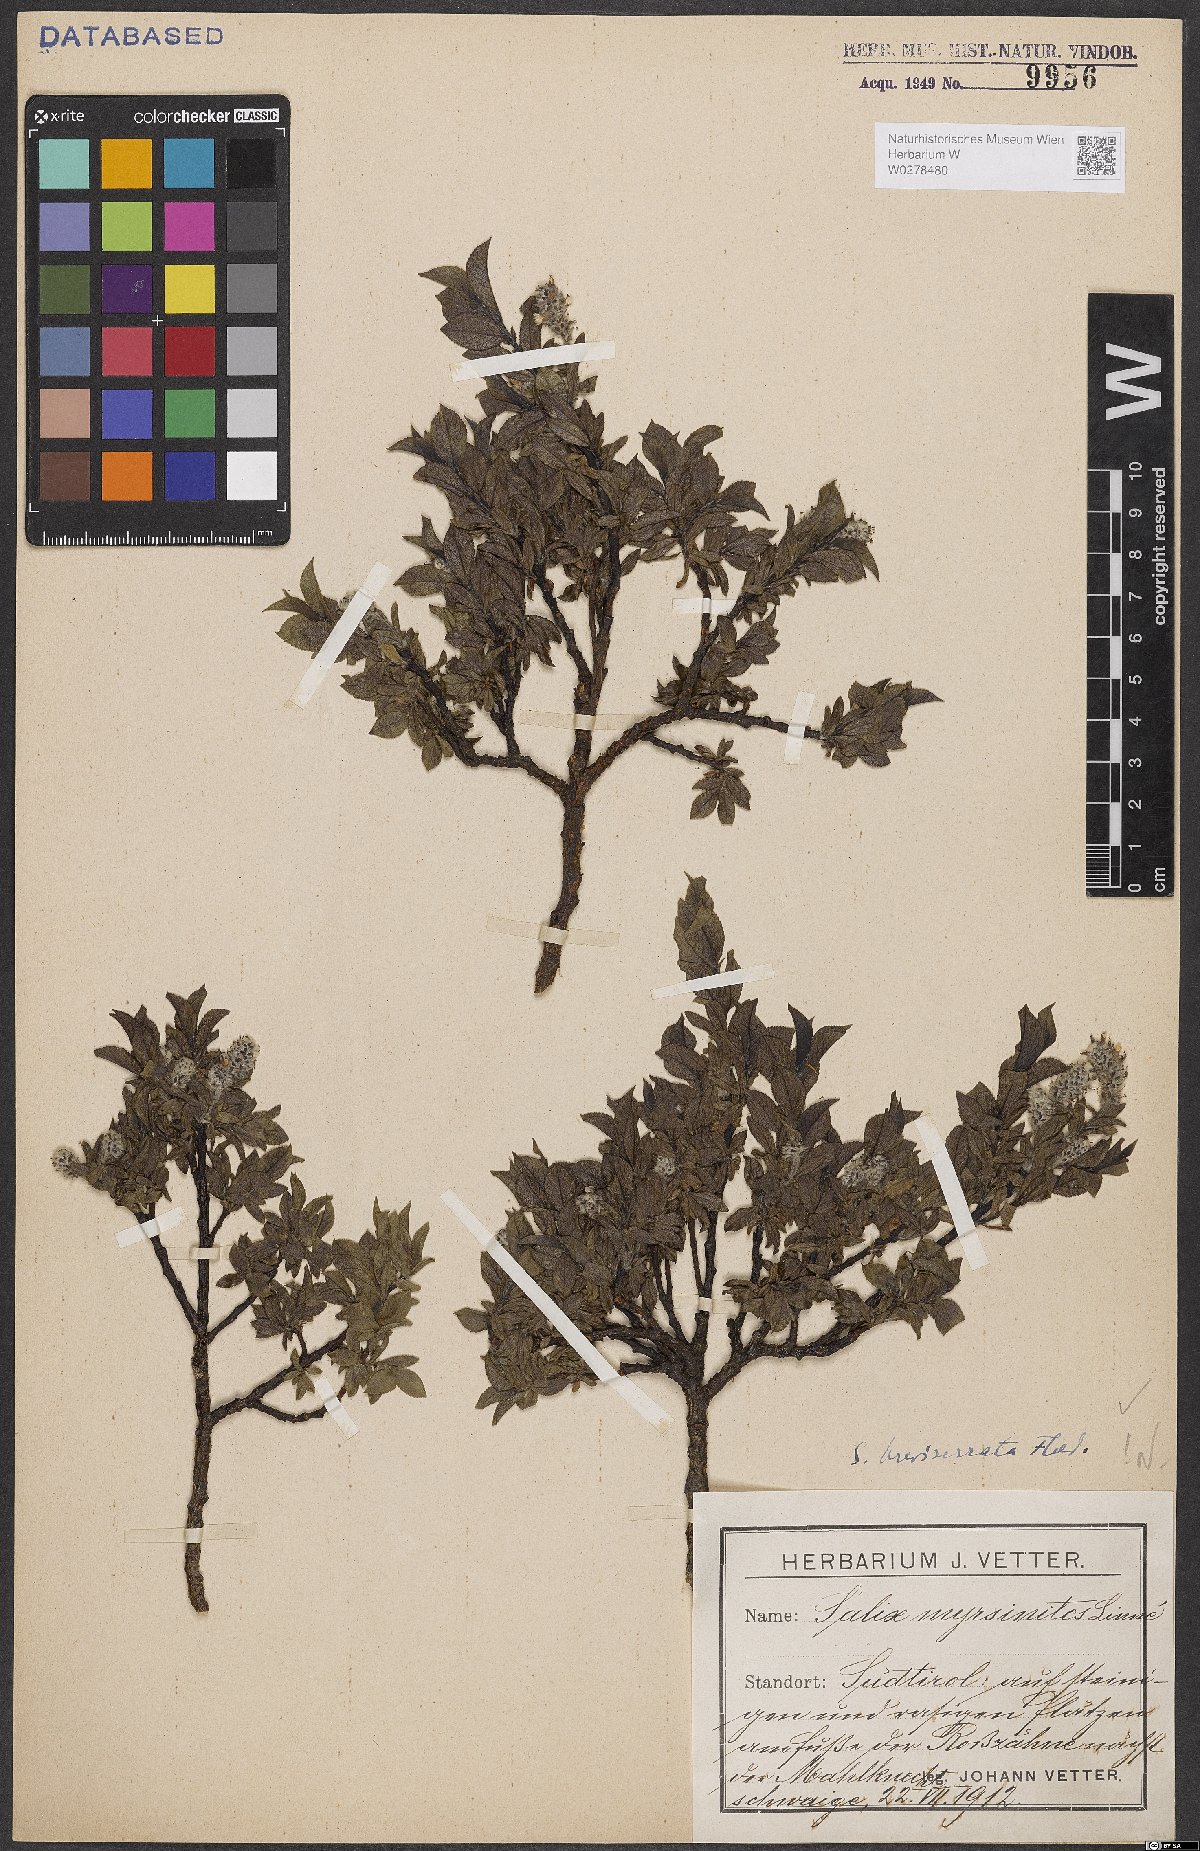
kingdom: Plantae
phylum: Tracheophyta
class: Magnoliopsida
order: Malpighiales
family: Salicaceae
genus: Salix
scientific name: Salix breviserrata
